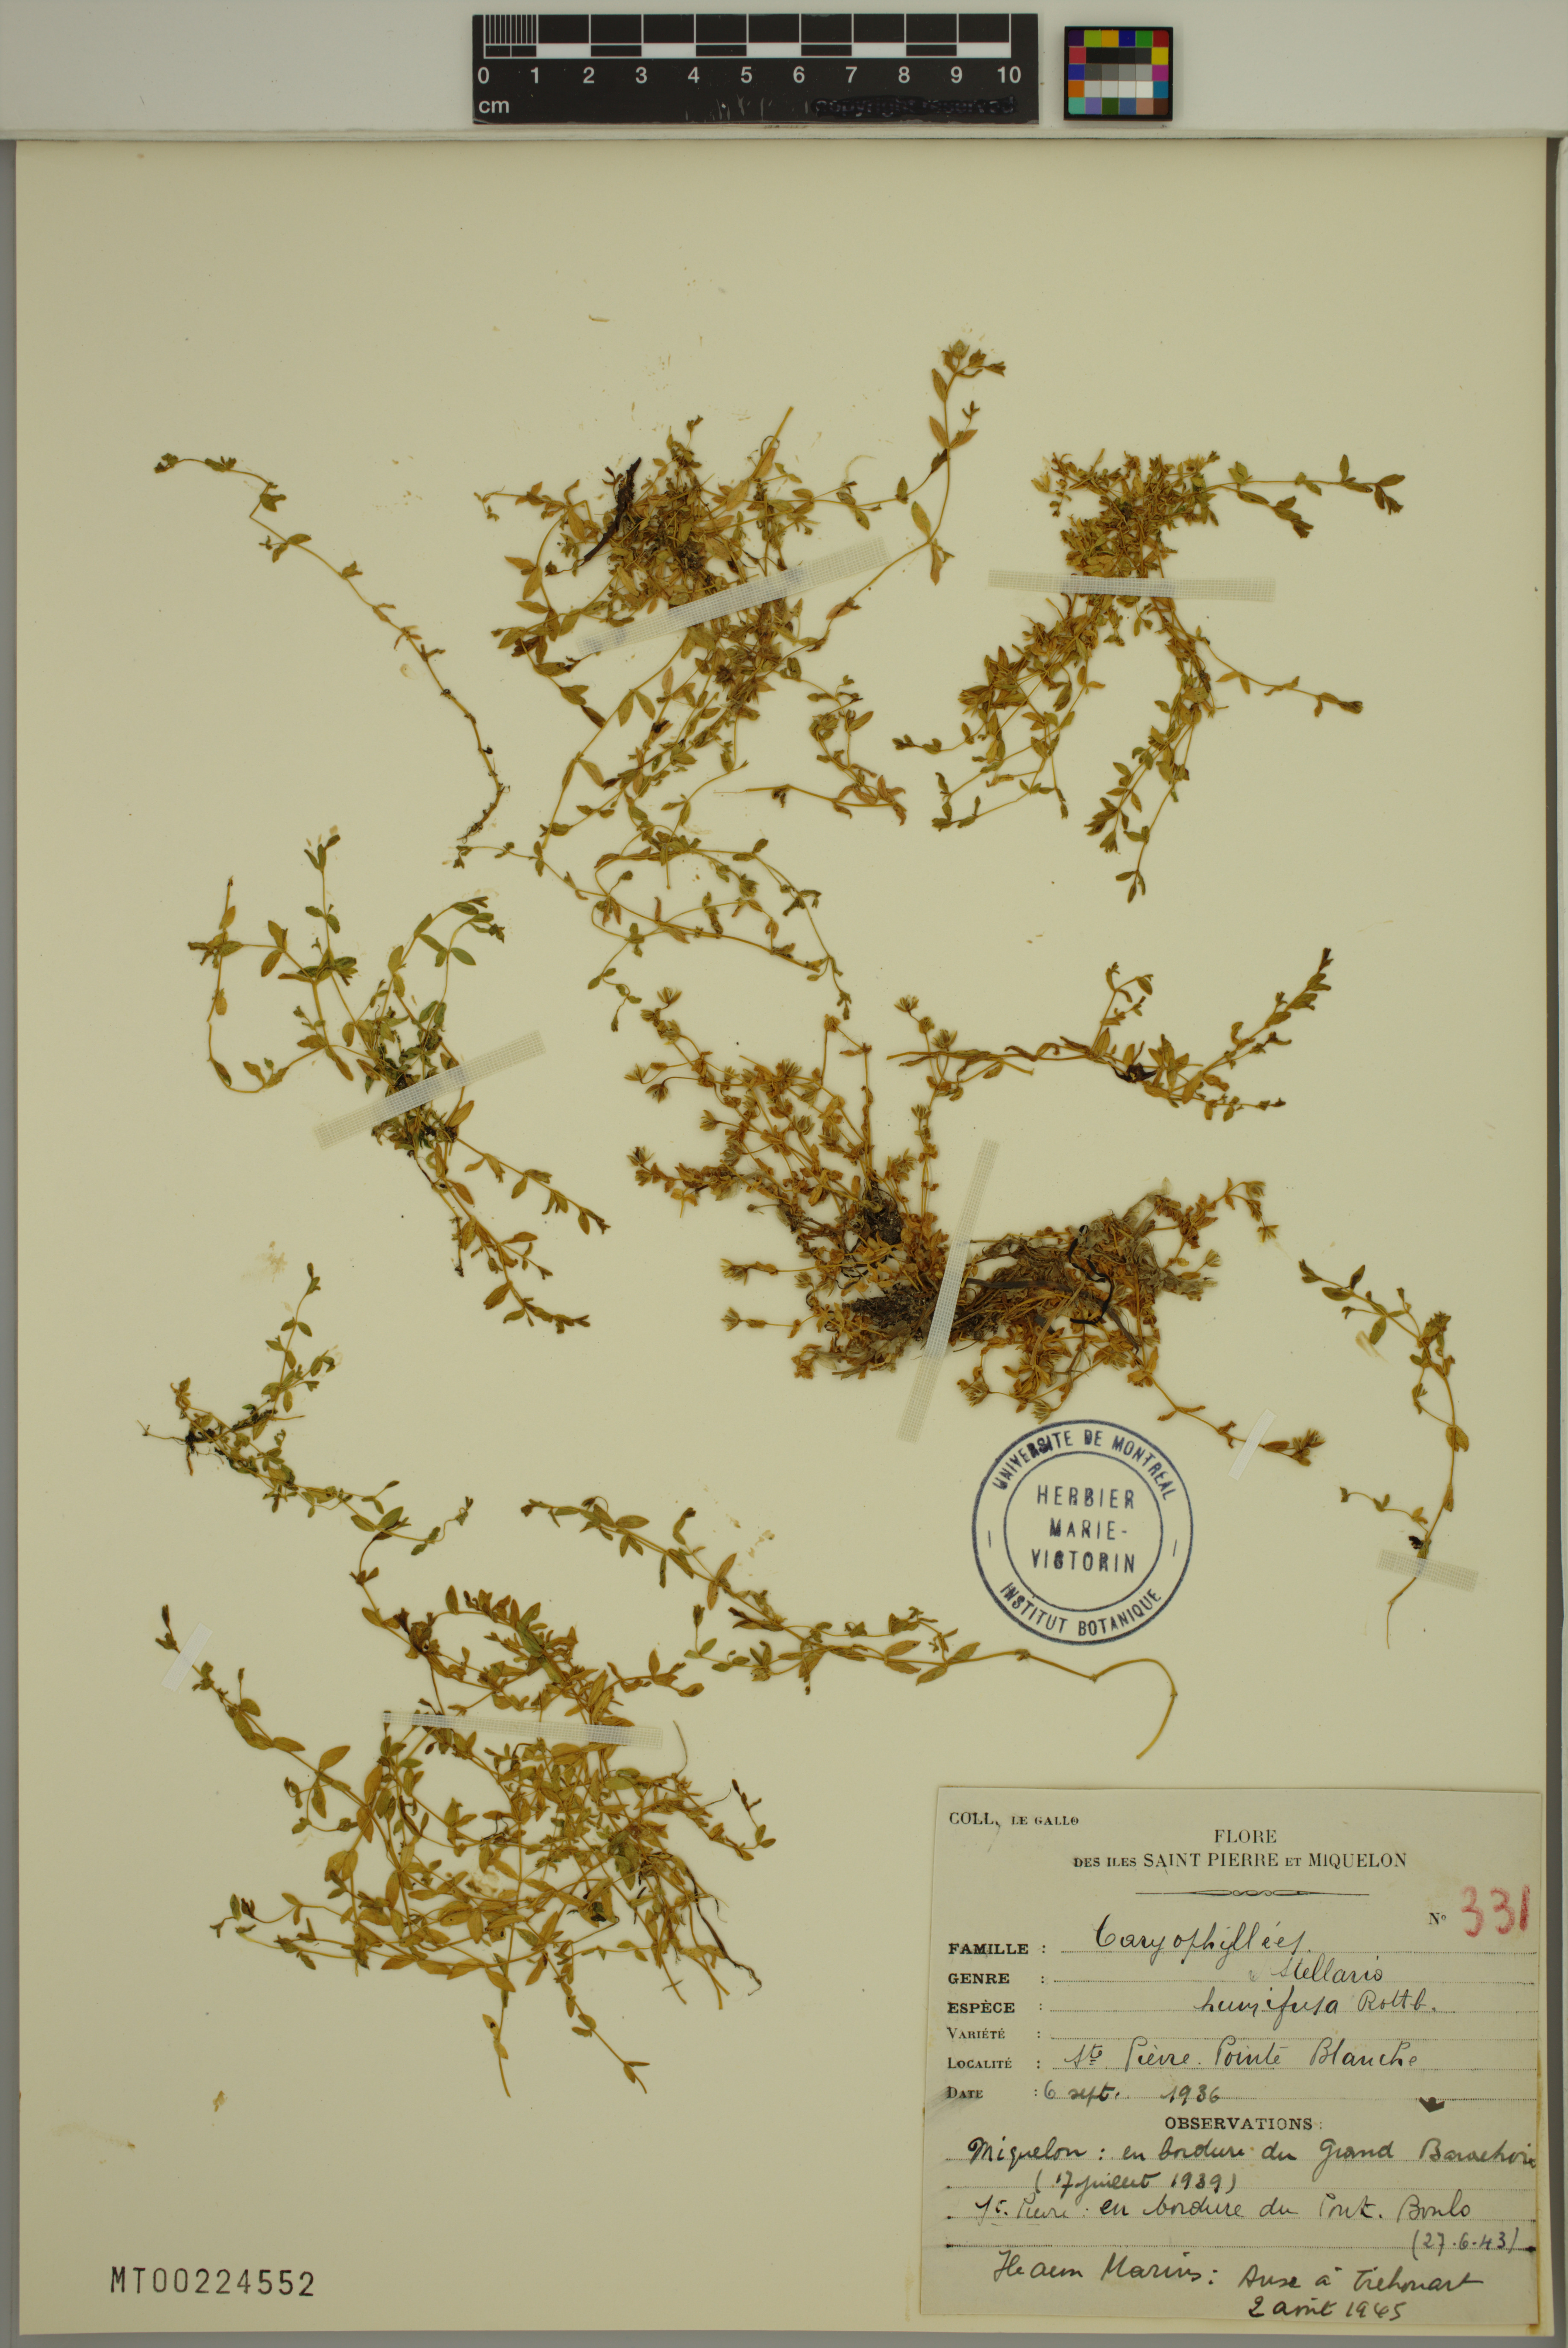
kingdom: Plantae
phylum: Tracheophyta
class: Magnoliopsida
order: Caryophyllales
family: Caryophyllaceae
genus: Stellaria
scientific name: Stellaria humifusa
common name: Creeping starwort
